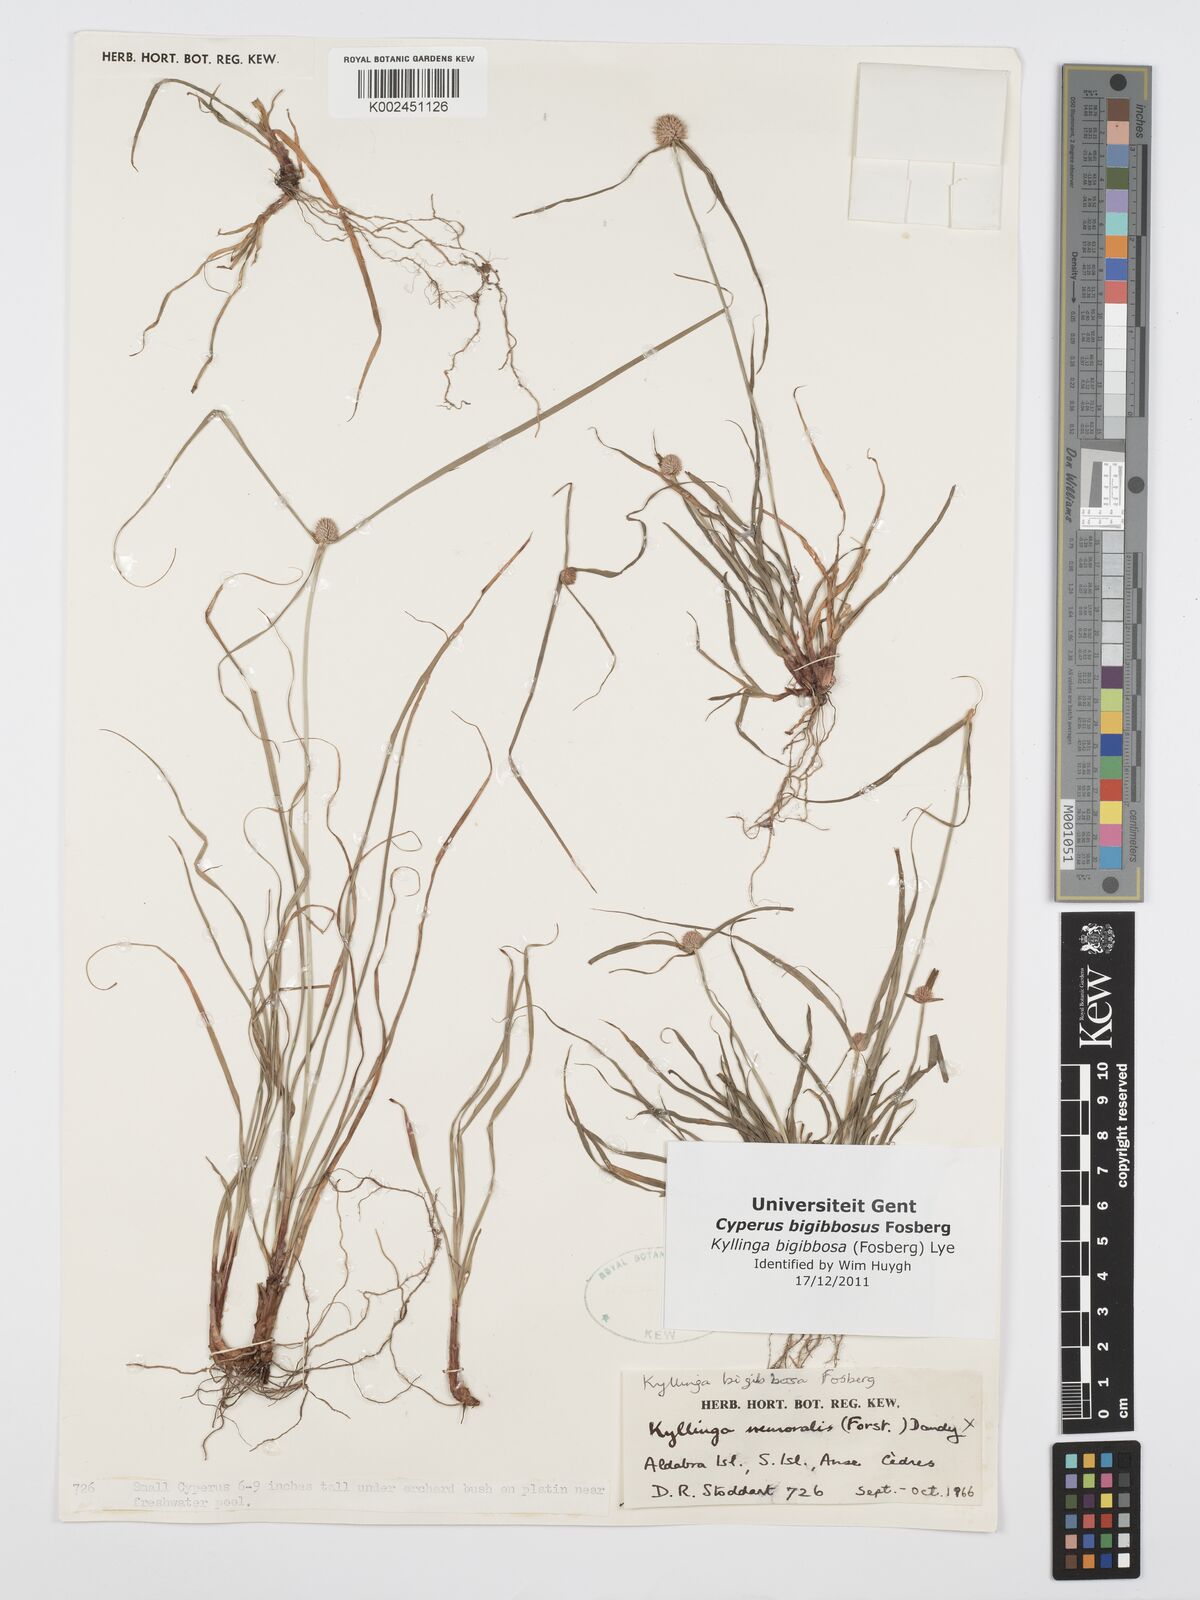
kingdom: Plantae
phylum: Tracheophyta
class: Liliopsida
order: Poales
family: Cyperaceae
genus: Cyperus
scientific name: Cyperus bigibbosa
